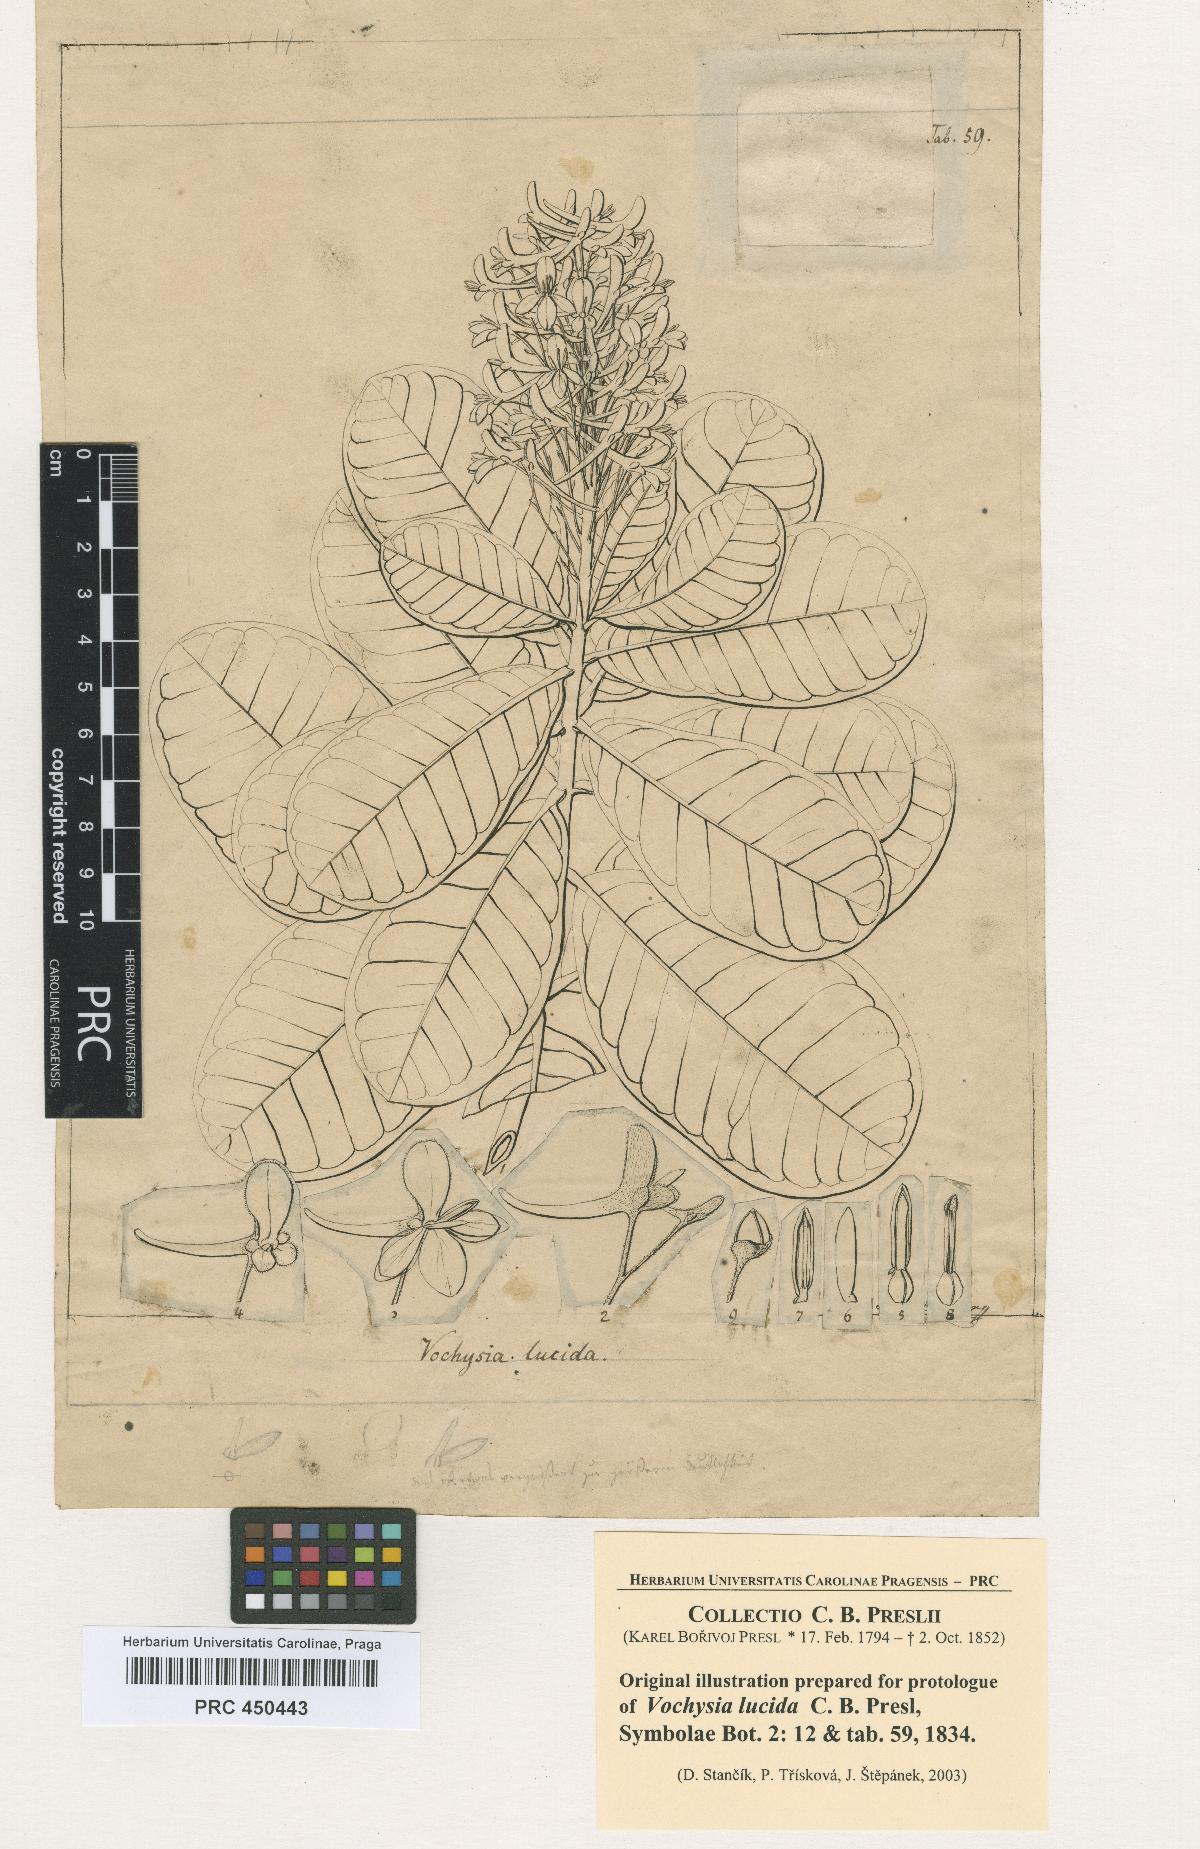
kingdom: Plantae
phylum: Tracheophyta
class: Magnoliopsida
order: Myrtales
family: Vochysiaceae
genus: Vochysia
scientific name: Vochysia lucida
